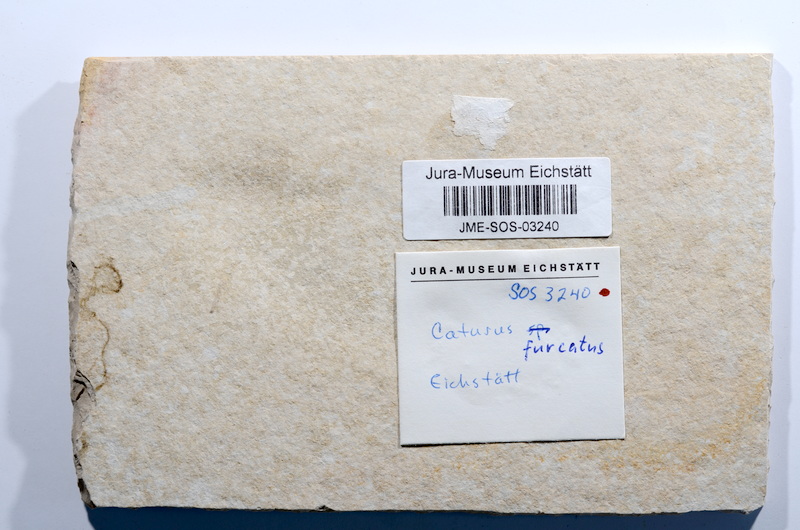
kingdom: Animalia
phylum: Chordata
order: Amiiformes
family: Caturidae
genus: Caturus
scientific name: Caturus furcatus
